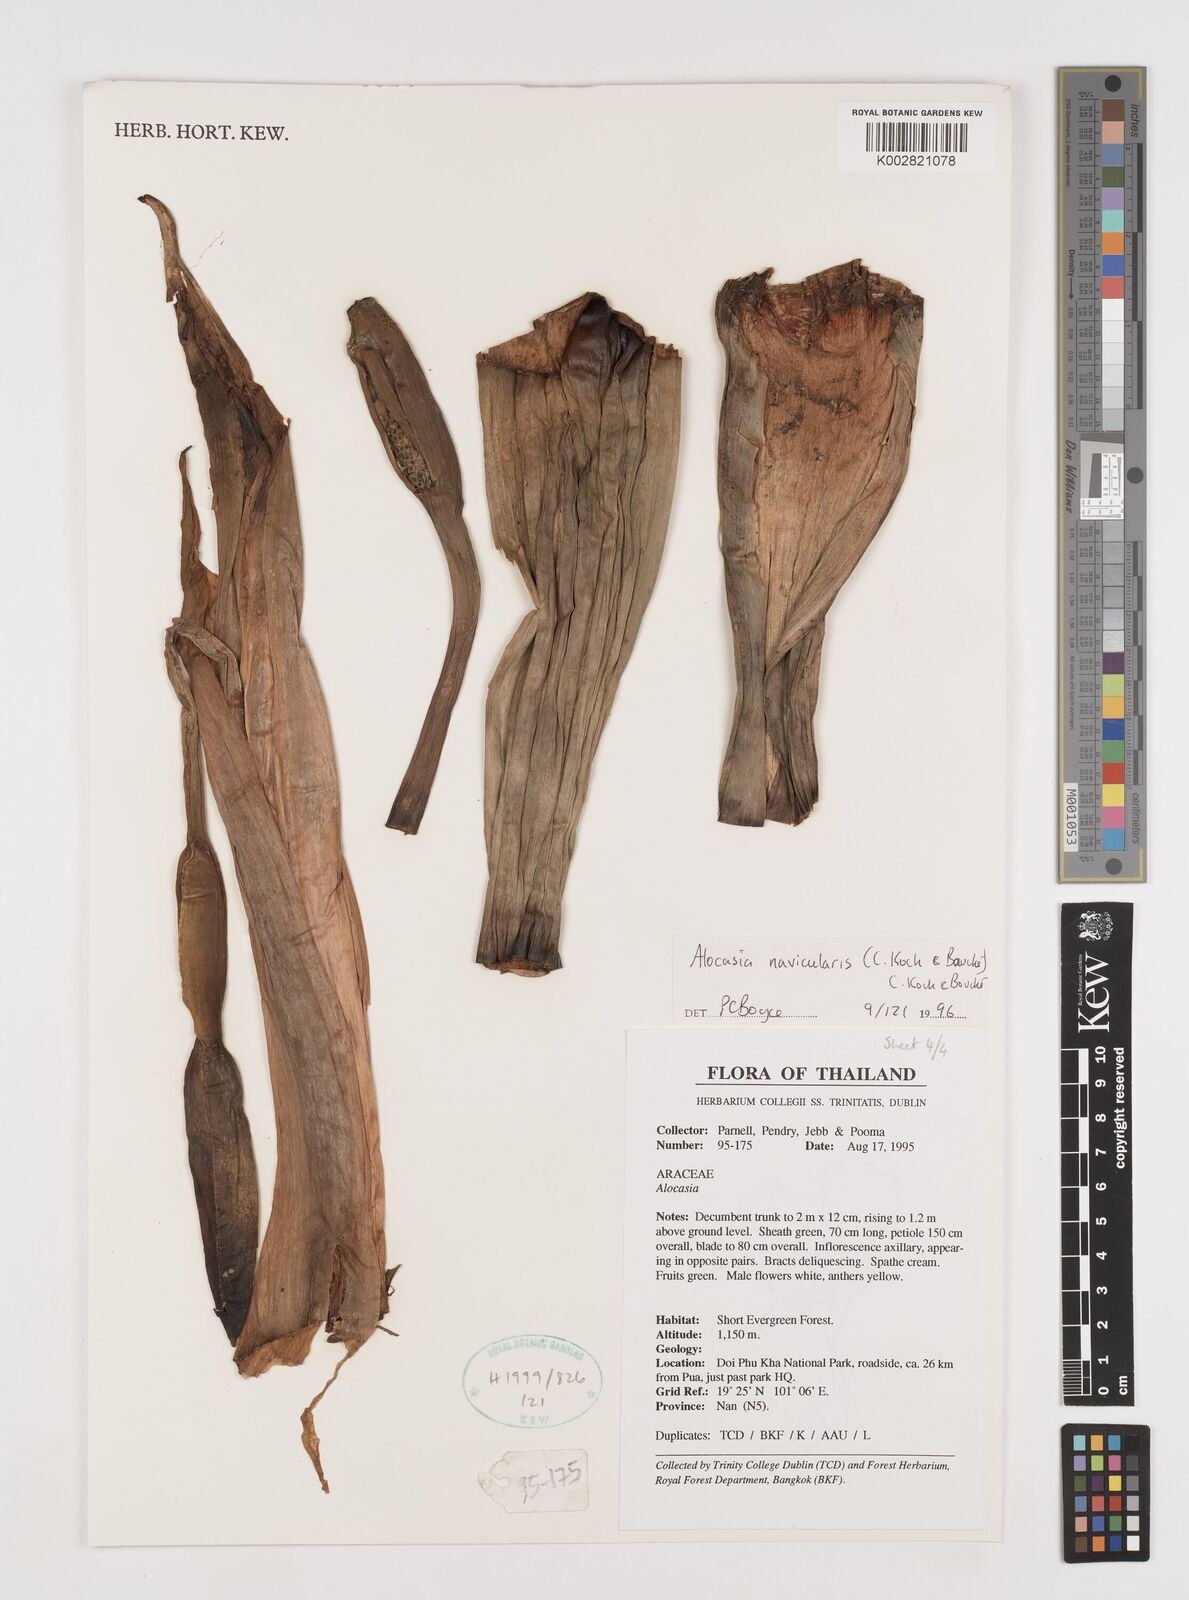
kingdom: Plantae
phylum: Tracheophyta
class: Liliopsida
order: Alismatales
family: Araceae
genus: Alocasia
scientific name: Alocasia navicularis
